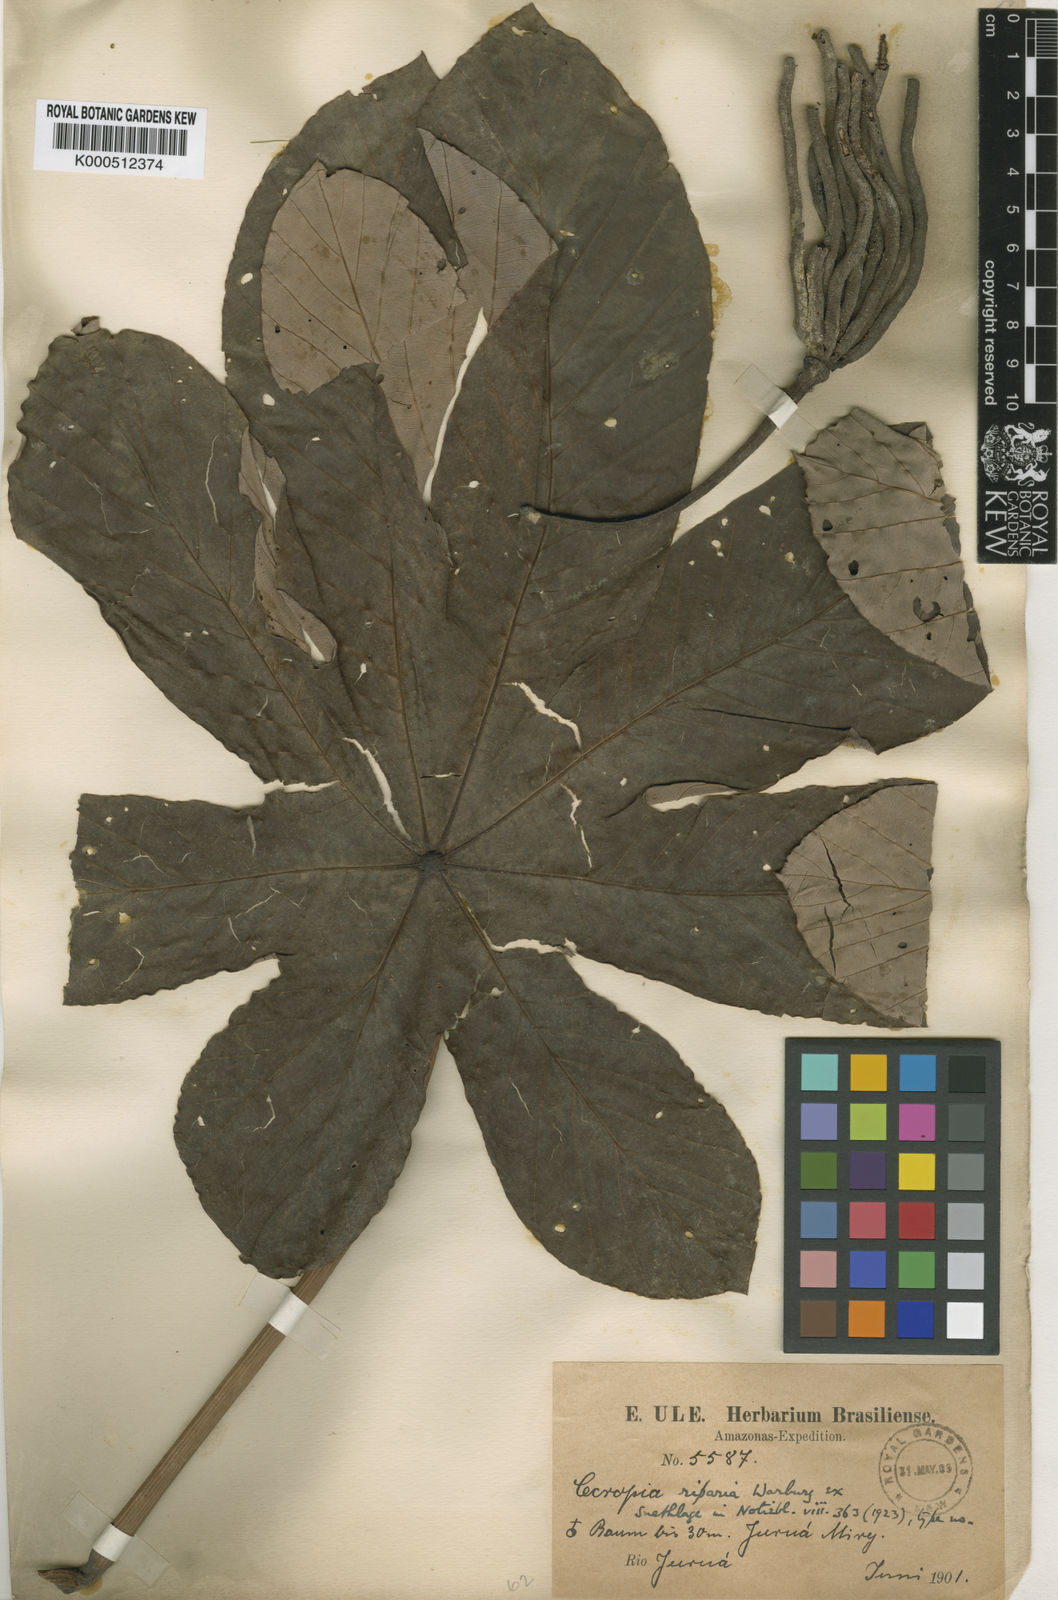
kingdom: Plantae
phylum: Tracheophyta
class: Magnoliopsida
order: Rosales
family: Urticaceae
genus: Cecropia
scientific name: Cecropia distachya
